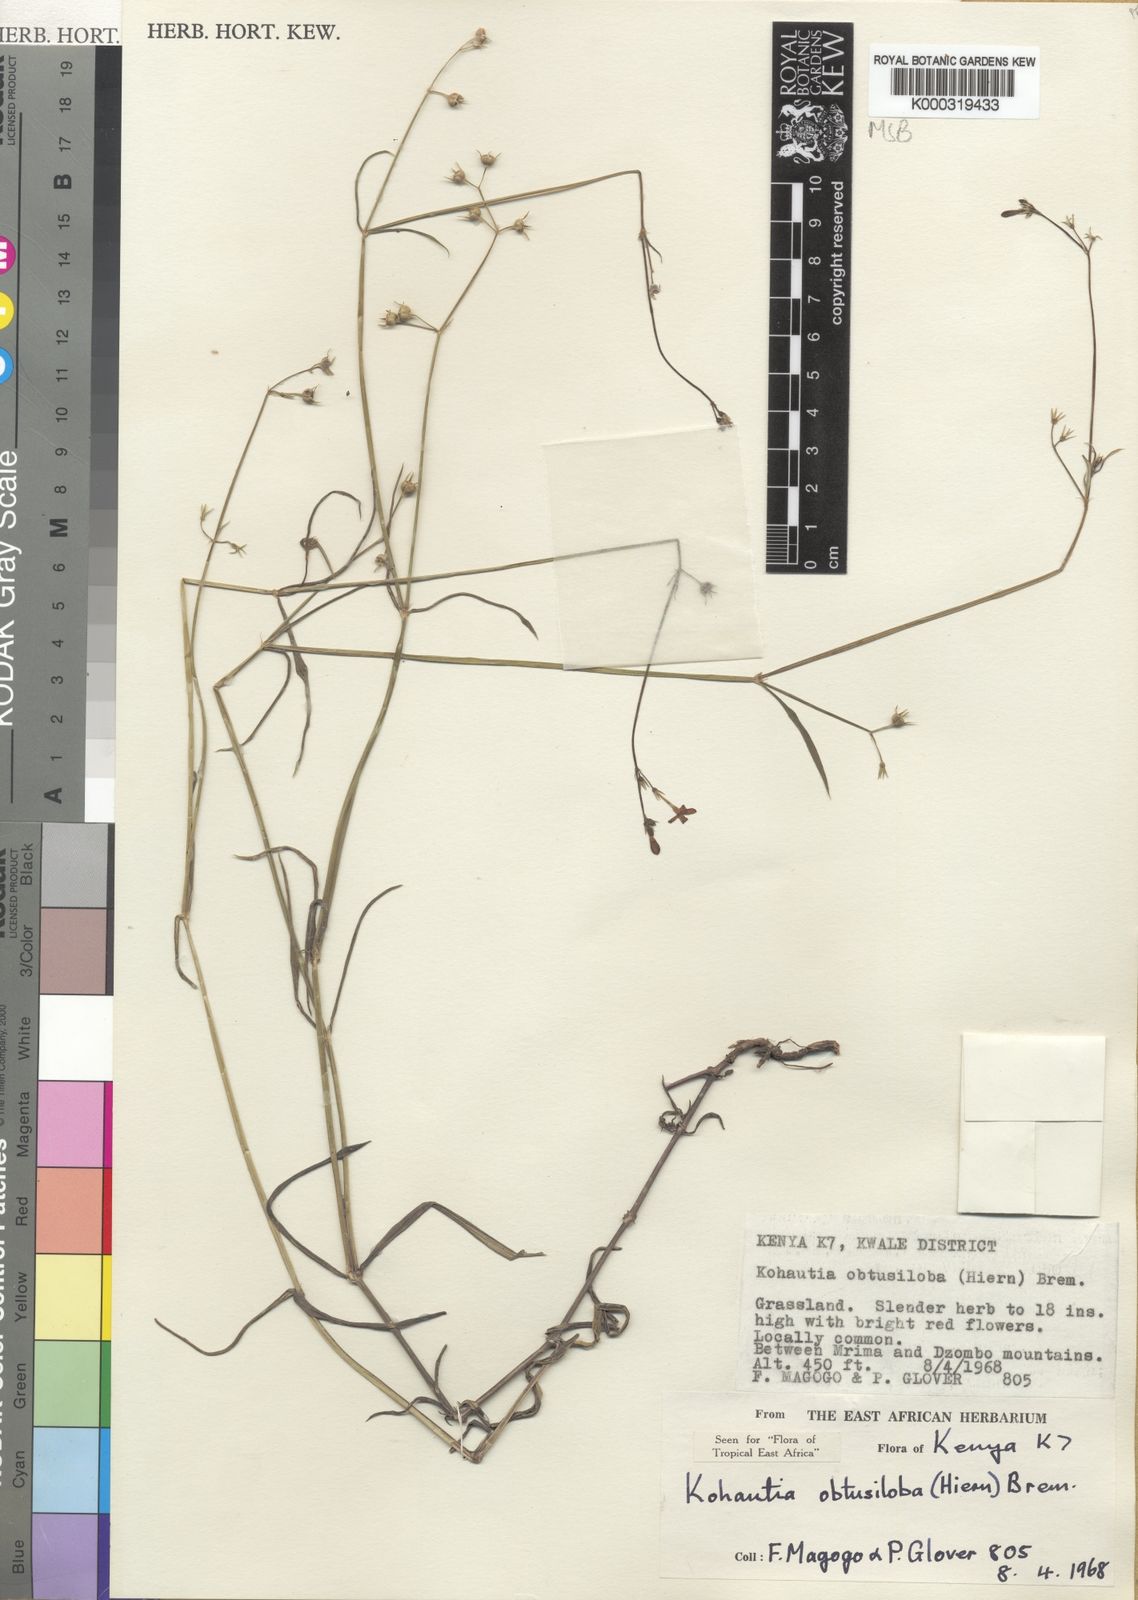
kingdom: Plantae
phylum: Tracheophyta
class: Magnoliopsida
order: Gentianales
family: Rubiaceae
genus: Cordylostigma
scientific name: Cordylostigma obtusilobum
